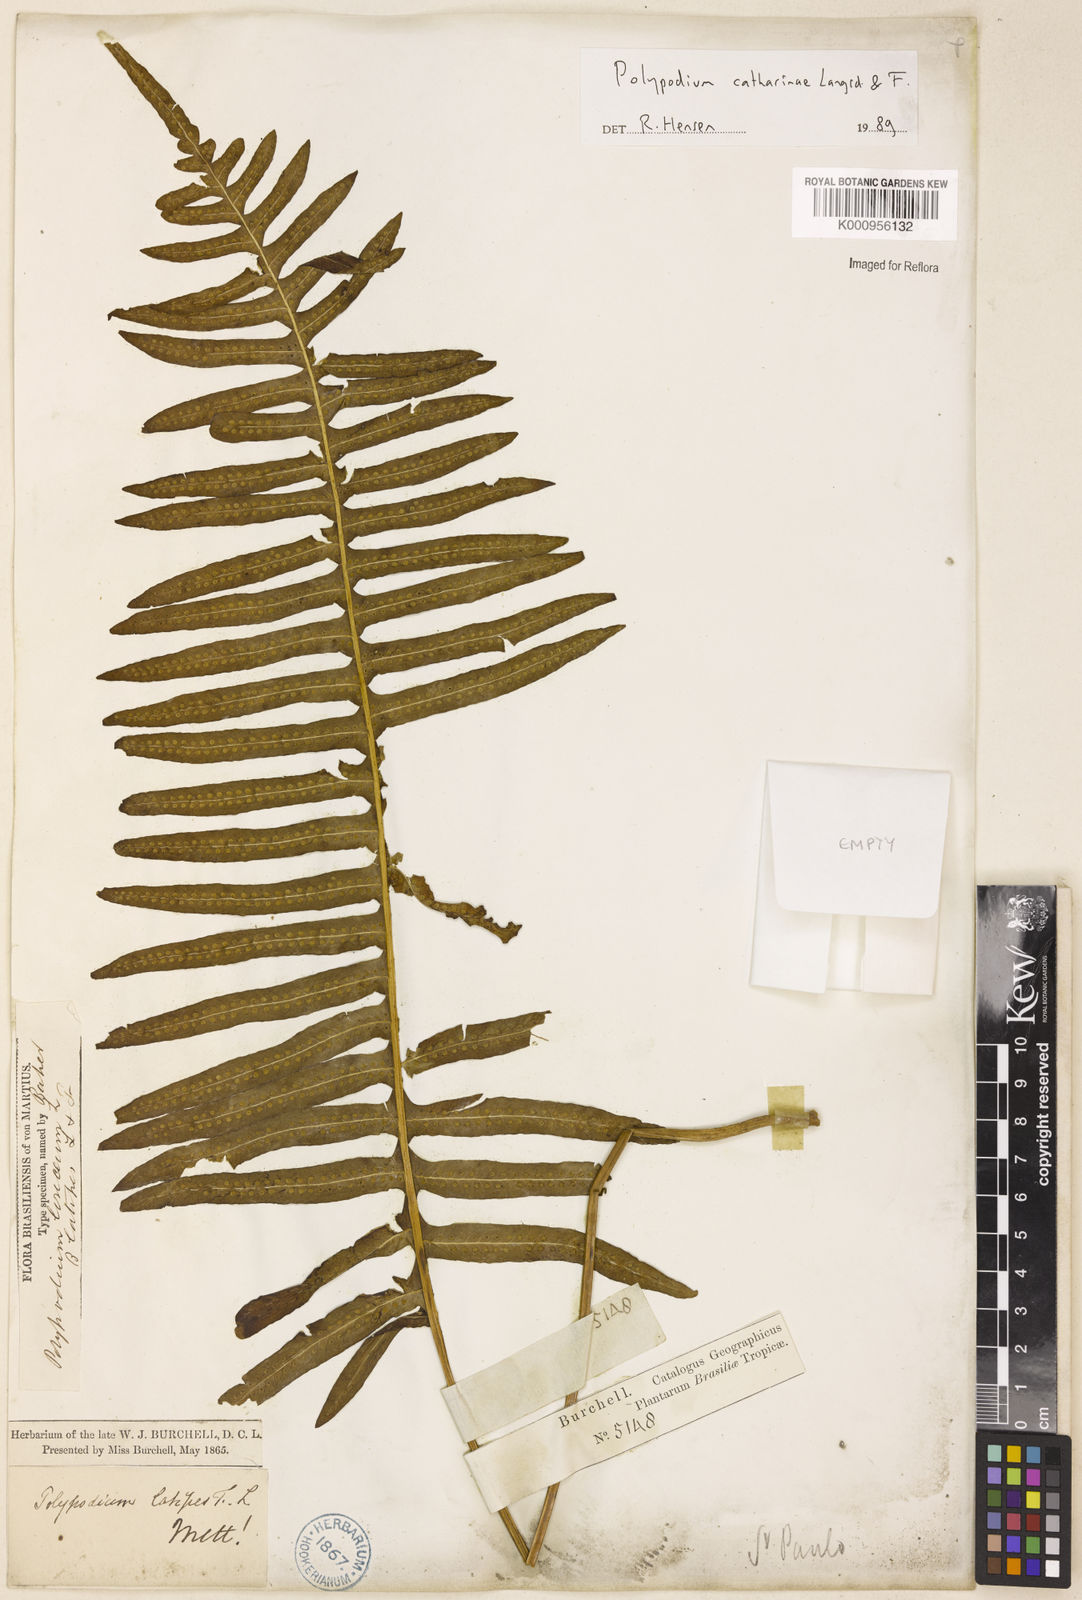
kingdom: Plantae
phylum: Tracheophyta
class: Polypodiopsida
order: Polypodiales
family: Polypodiaceae
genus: Serpocaulon
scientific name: Serpocaulon catharinae
